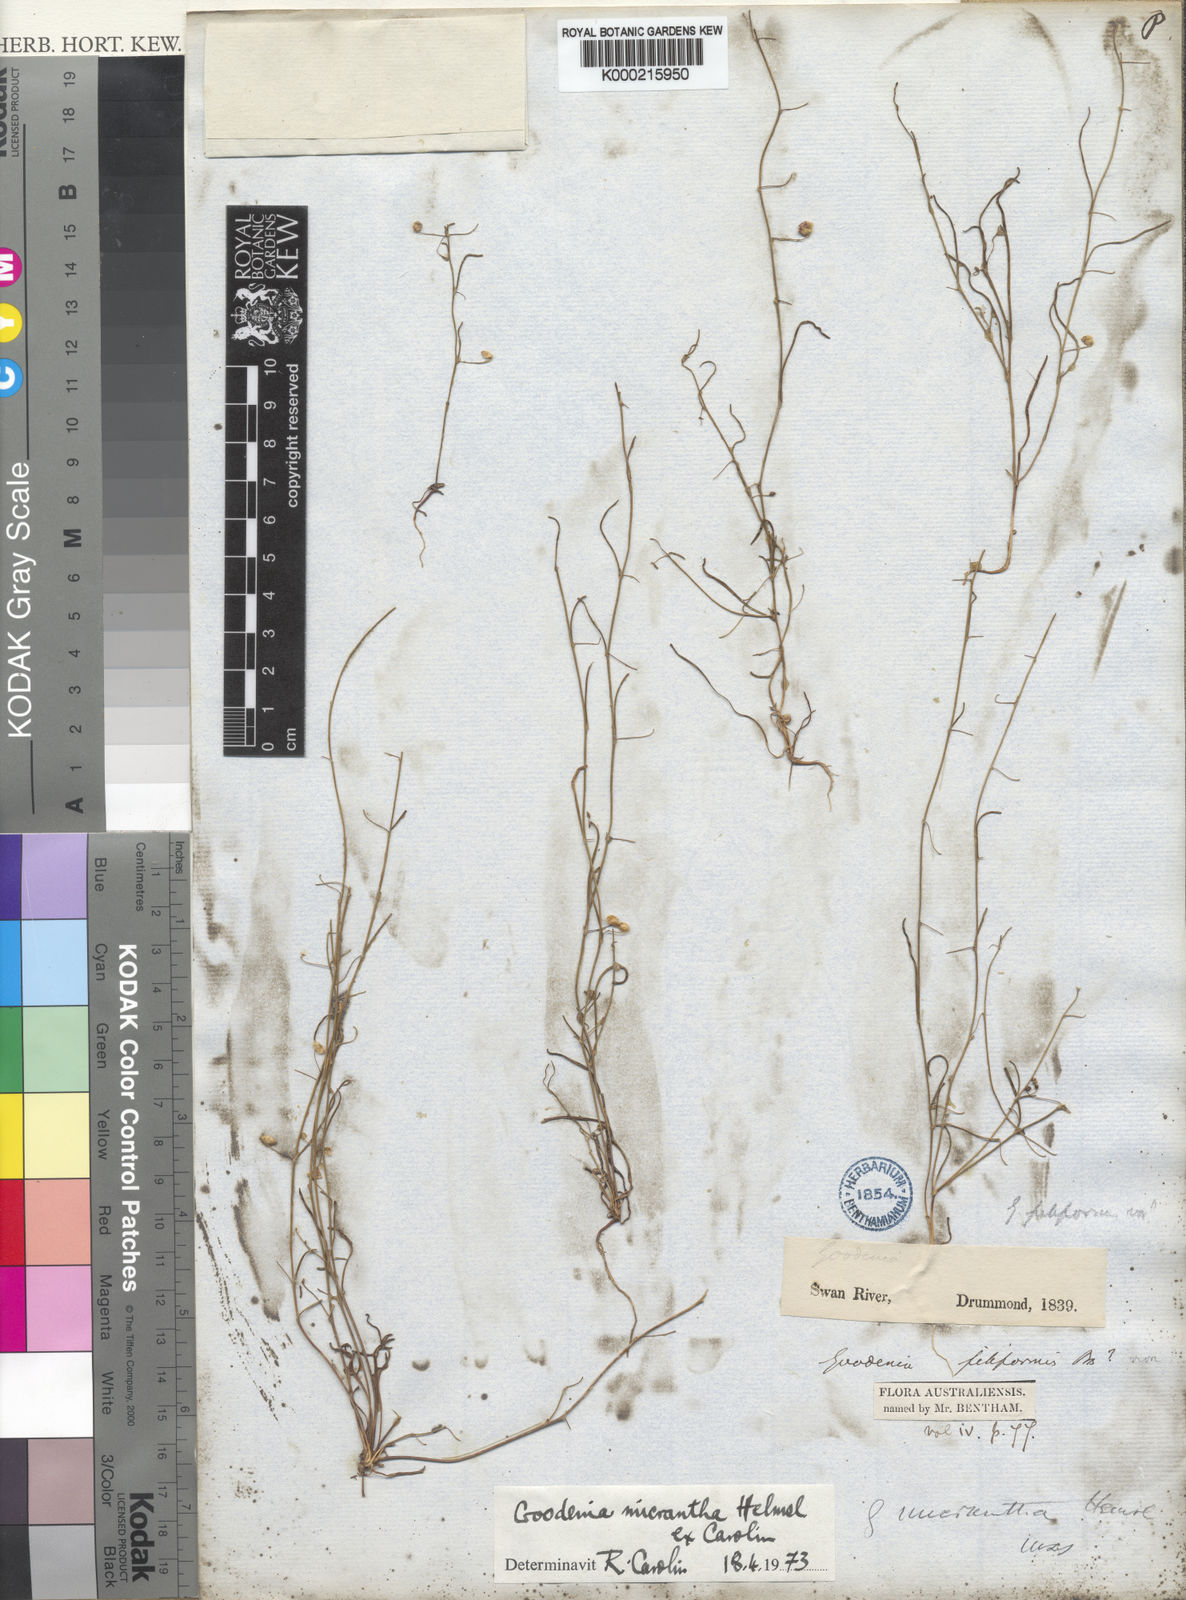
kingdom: Plantae
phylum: Tracheophyta
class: Magnoliopsida
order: Asterales
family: Goodeniaceae
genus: Goodenia
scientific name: Goodenia micrantha
